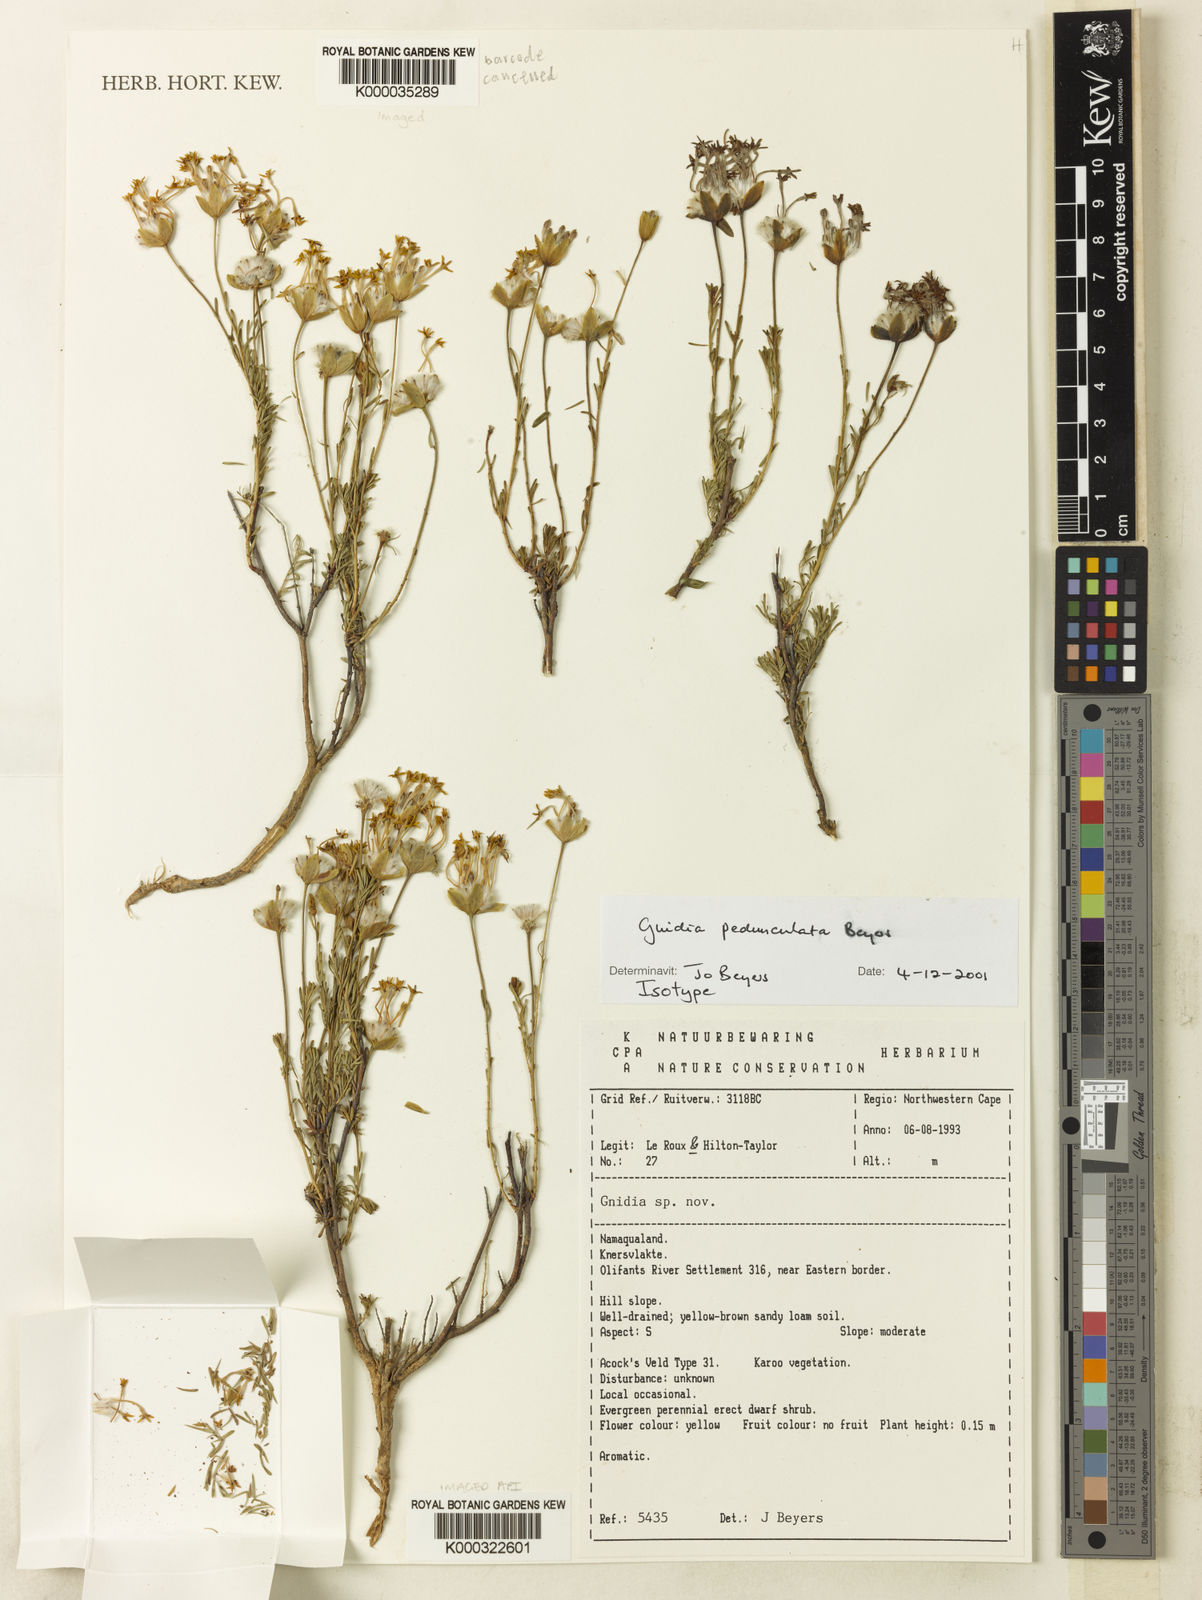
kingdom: Plantae
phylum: Tracheophyta
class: Magnoliopsida
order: Malvales
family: Thymelaeaceae
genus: Gnidia
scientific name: Gnidia pedunculata
